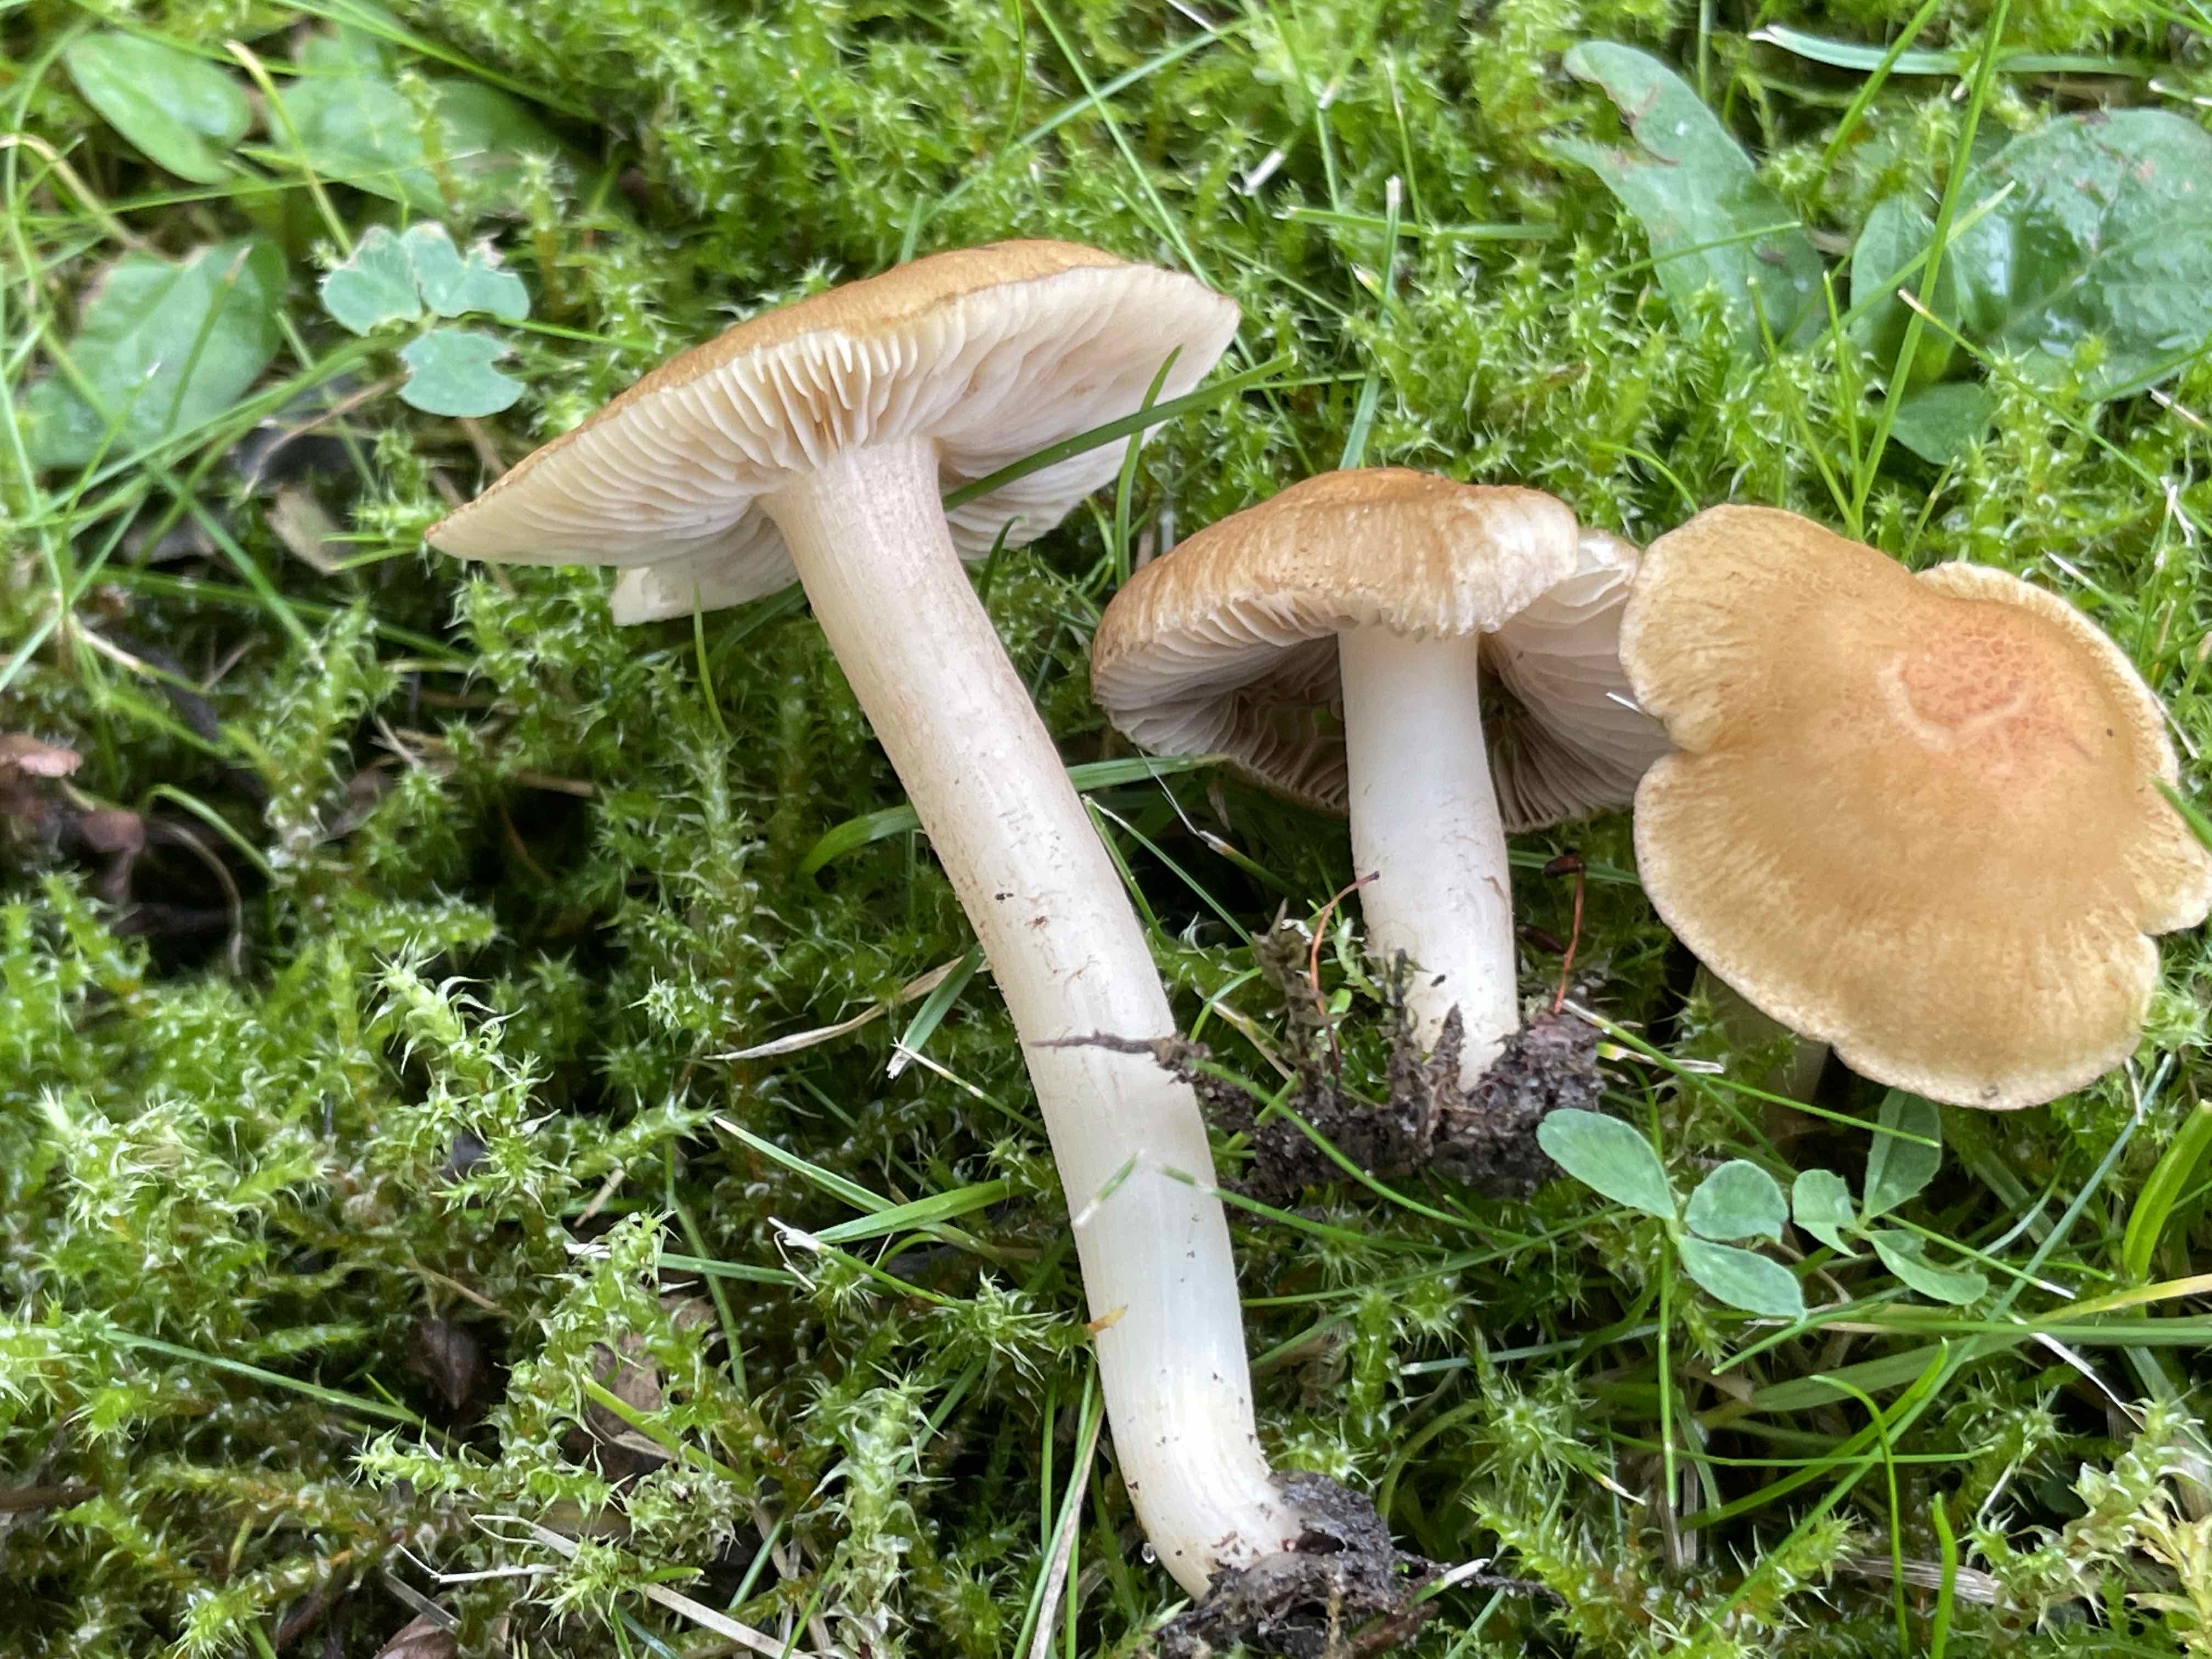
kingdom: Fungi
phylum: Basidiomycota
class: Agaricomycetes
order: Agaricales
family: Inocybaceae
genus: Inocybe
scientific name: Inocybe
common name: trævlhat
